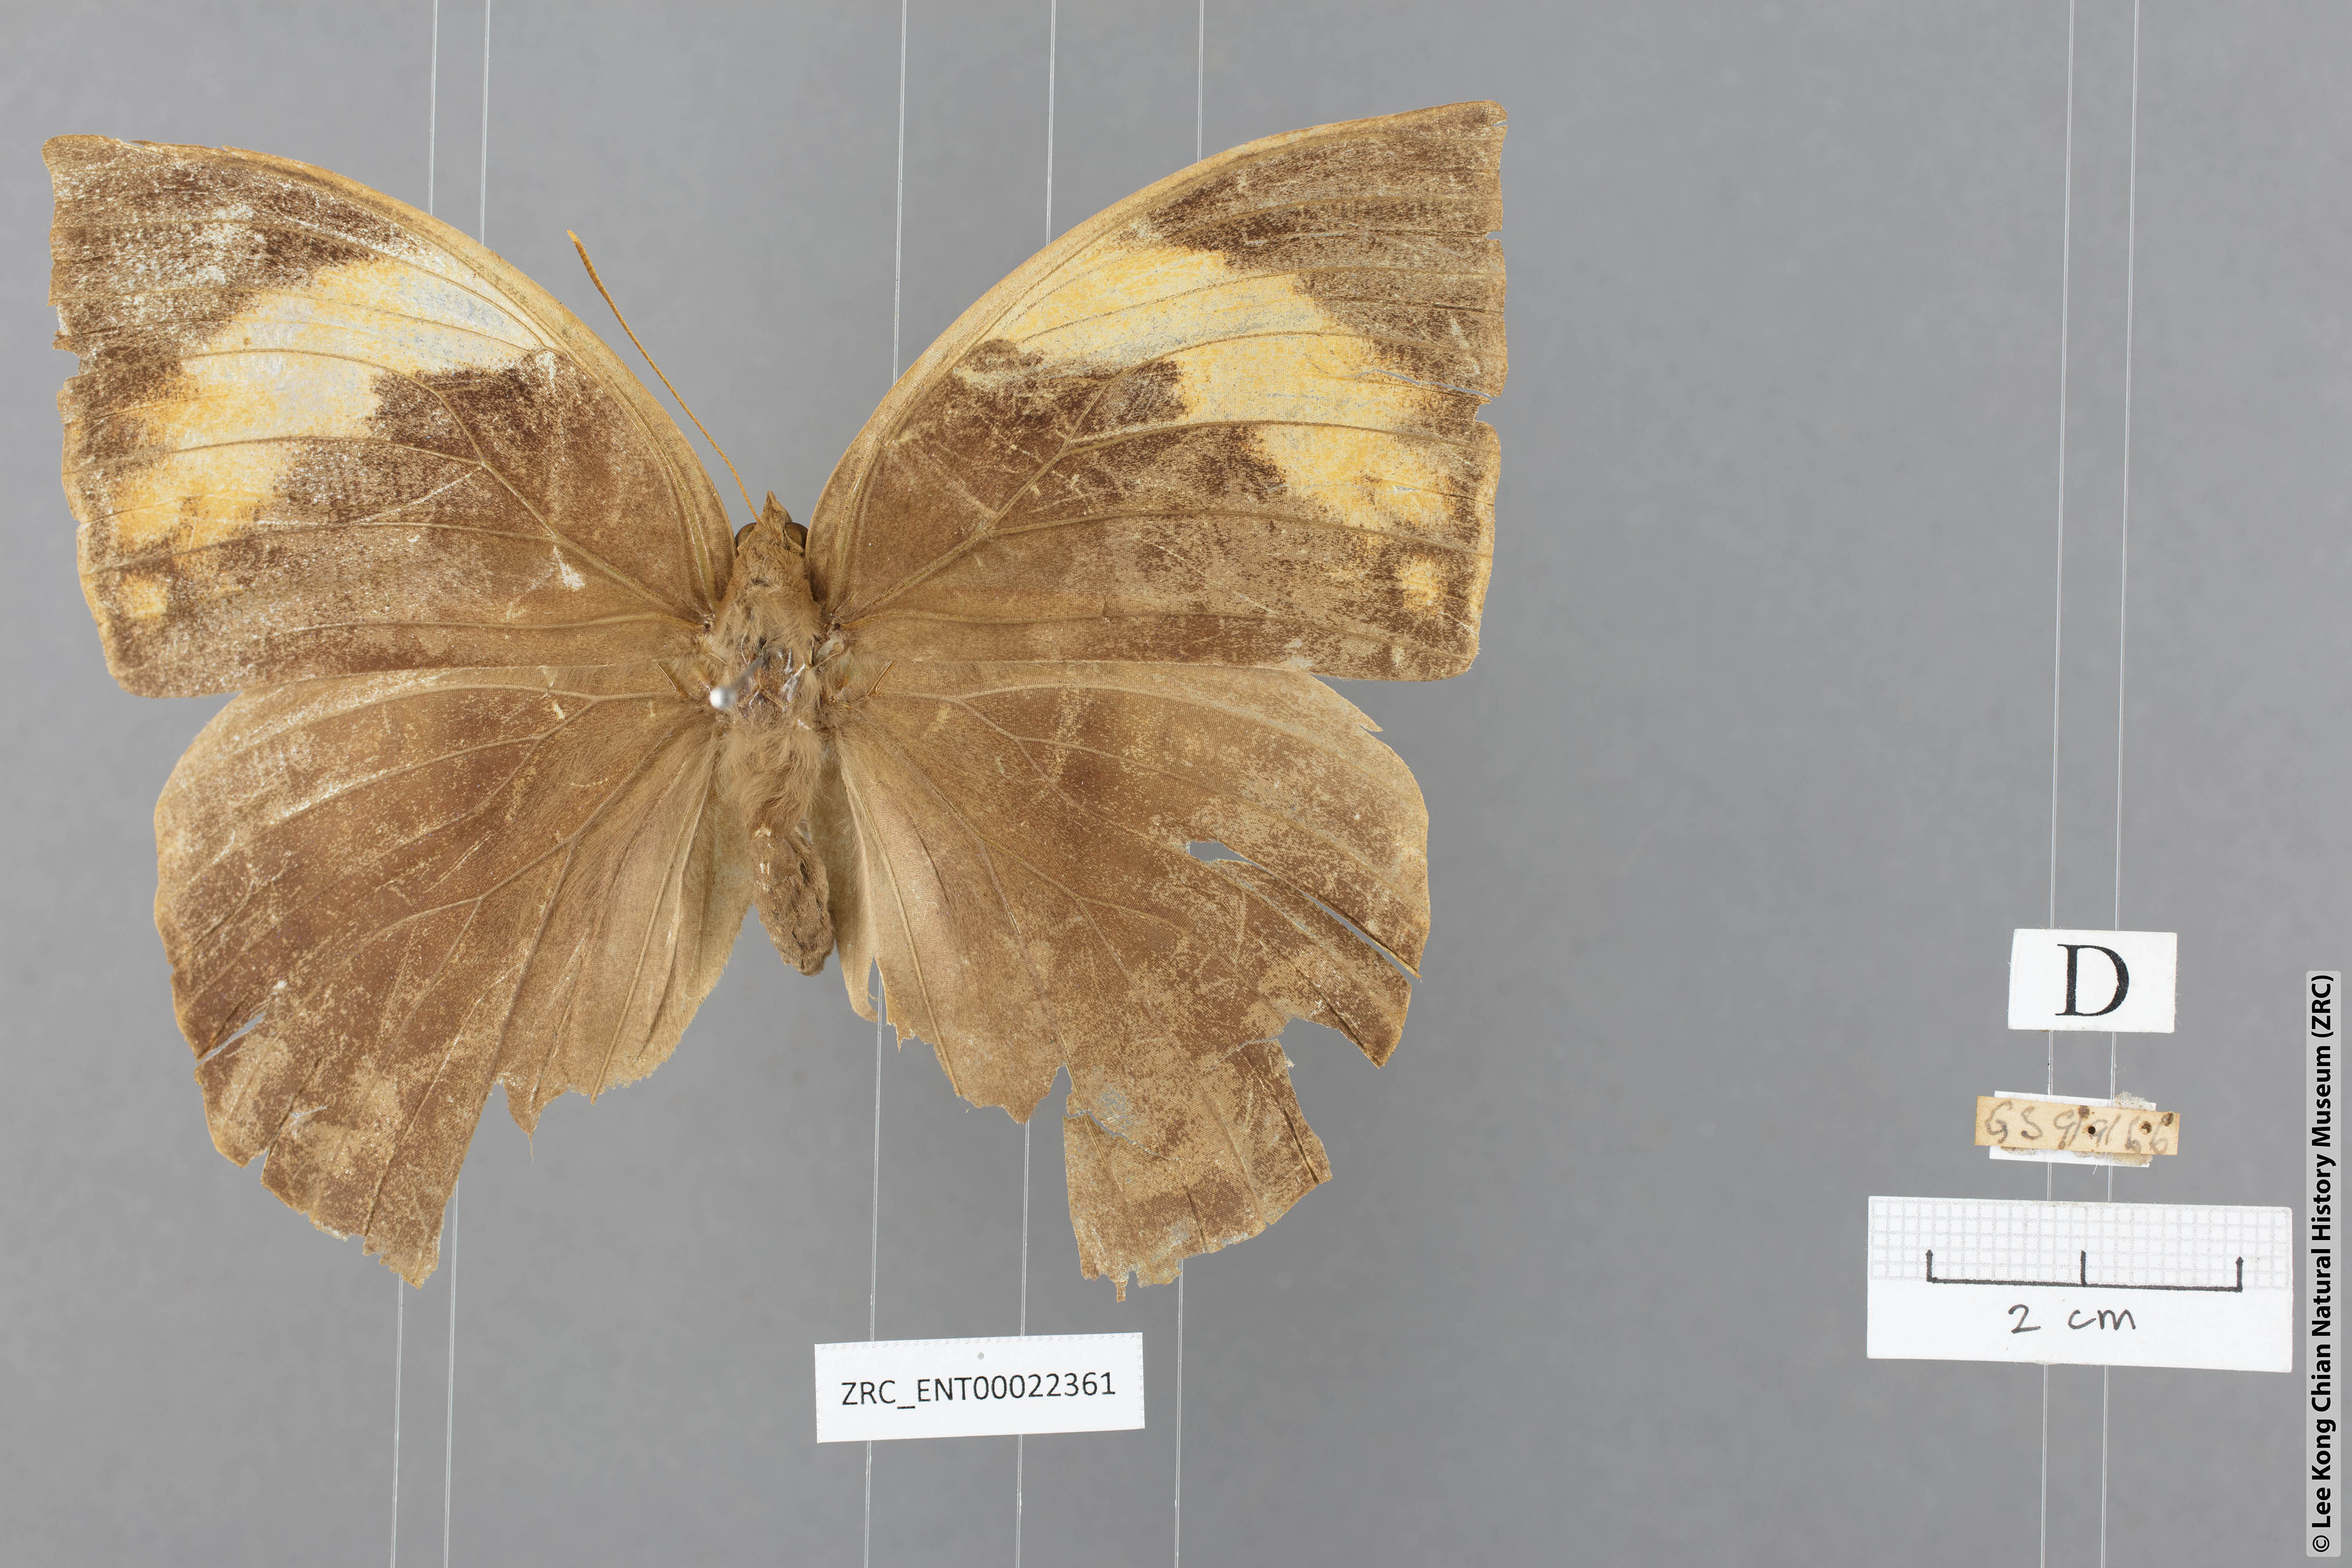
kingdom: Animalia
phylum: Arthropoda
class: Insecta
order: Lepidoptera
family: Nymphalidae
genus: Discophora
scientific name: Discophora timora
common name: Great duffer
